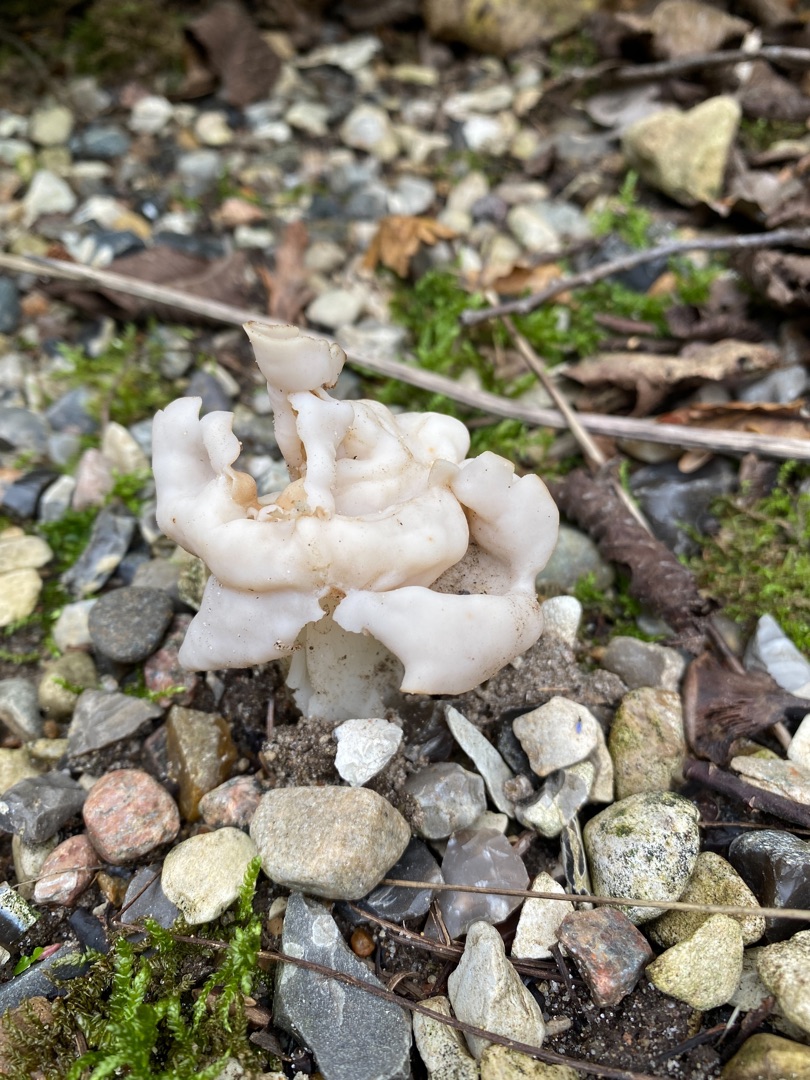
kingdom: Fungi
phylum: Ascomycota
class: Pezizomycetes
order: Pezizales
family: Helvellaceae
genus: Helvella
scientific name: Helvella crispa
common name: Kruset foldhat
